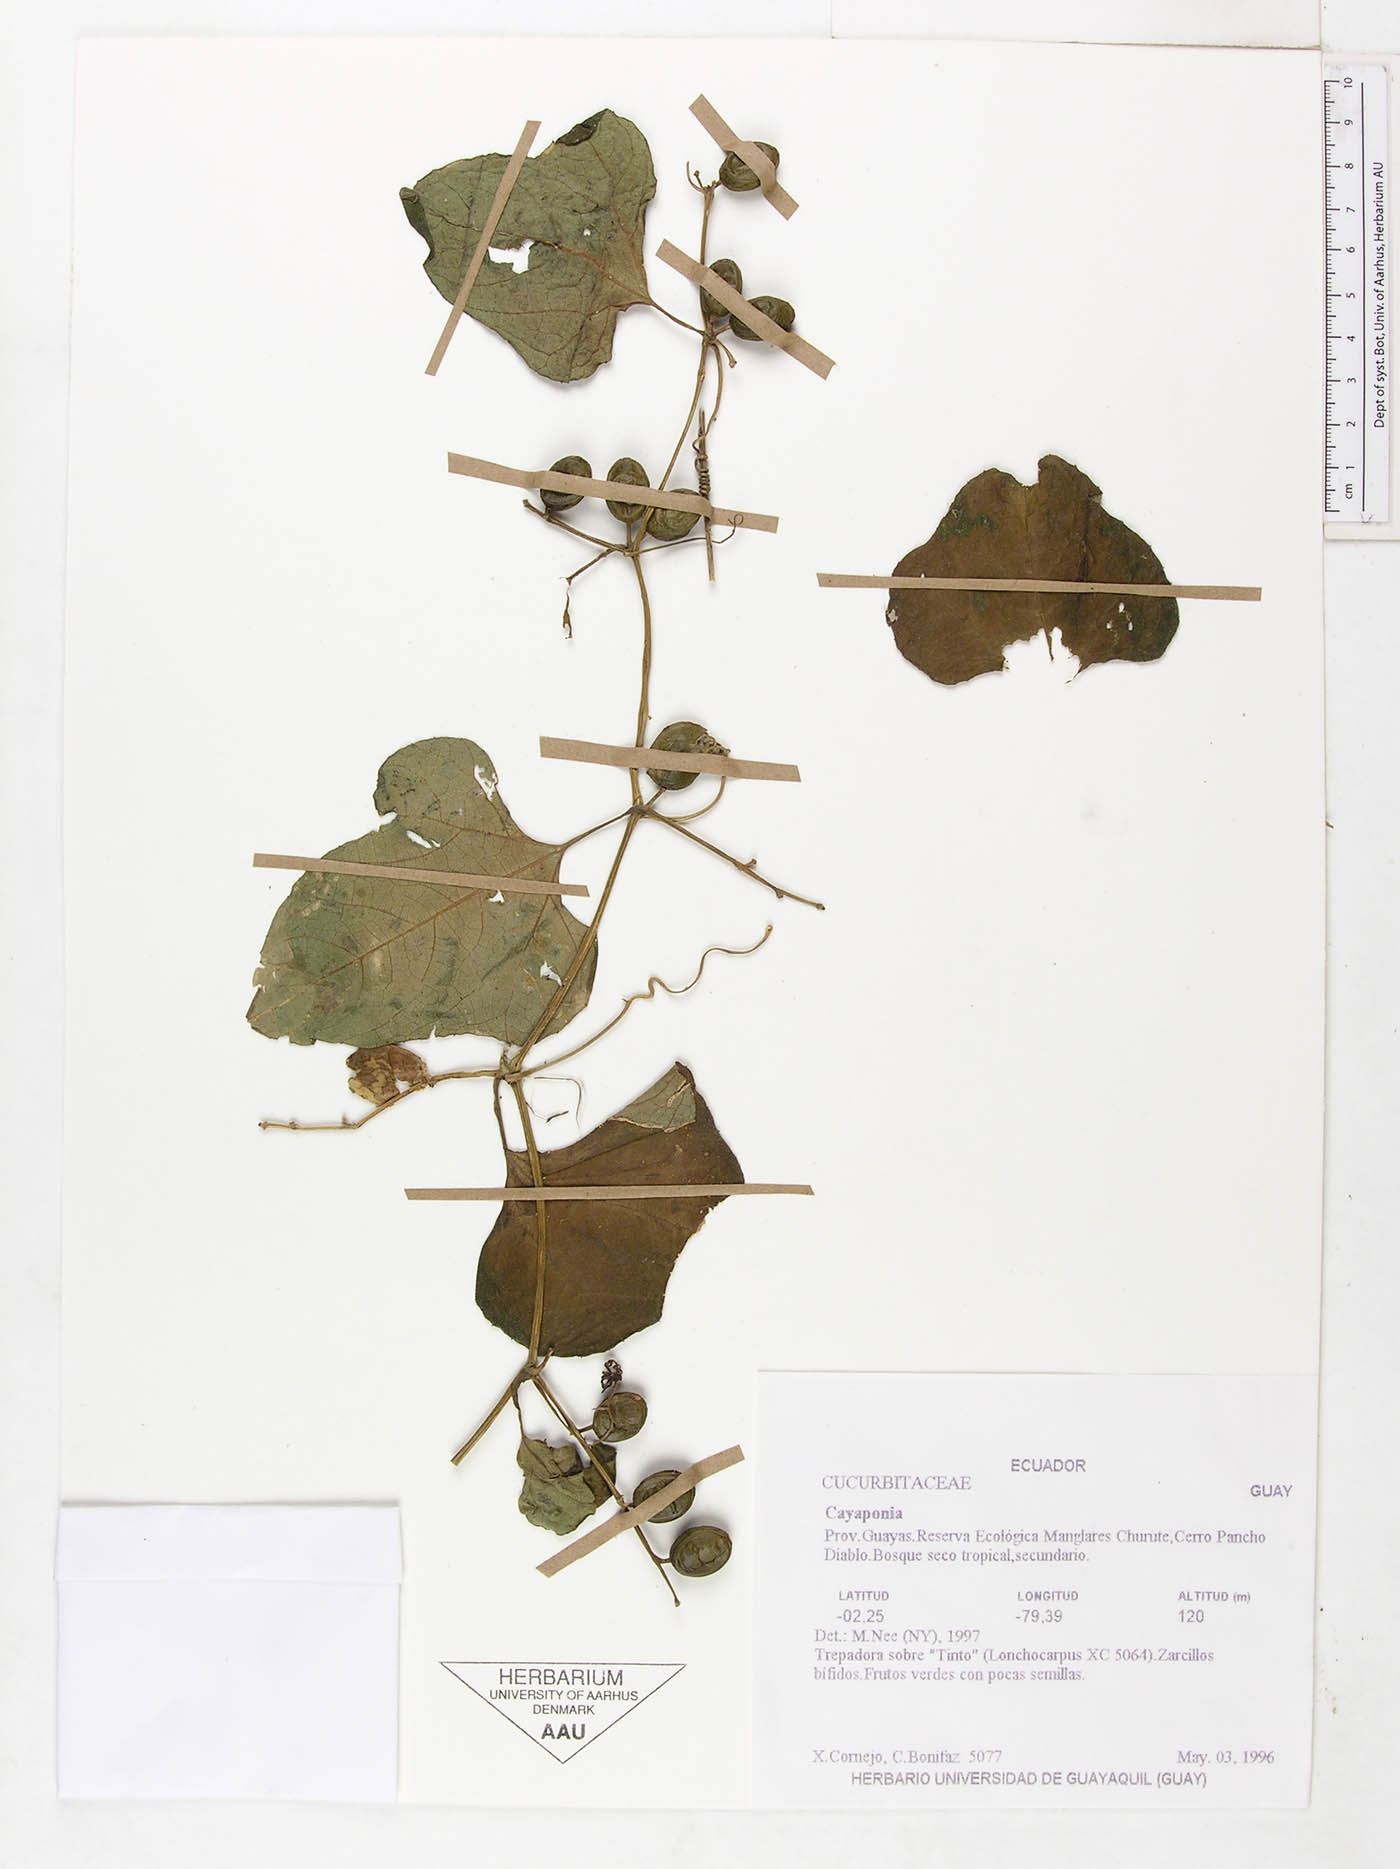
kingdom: Plantae
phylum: Tracheophyta
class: Magnoliopsida
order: Cucurbitales
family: Cucurbitaceae
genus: Cayaponia
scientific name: Cayaponia glandulosa
